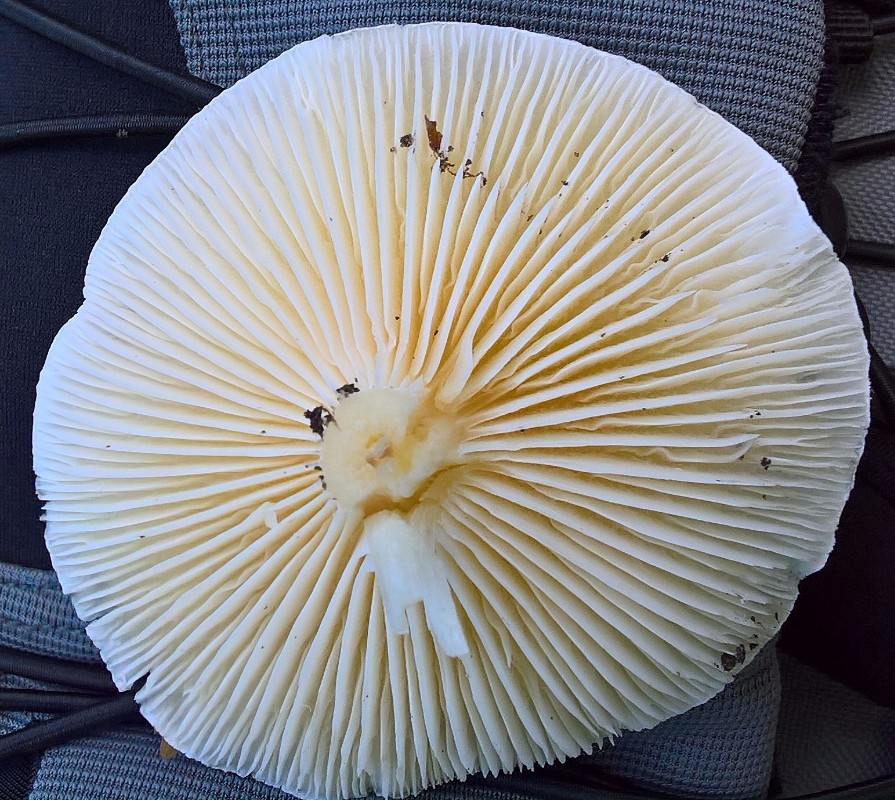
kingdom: Fungi
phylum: Basidiomycota
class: Agaricomycetes
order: Agaricales
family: Hygrophoraceae
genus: Hygrophorus
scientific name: Hygrophorus
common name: sneglehat
